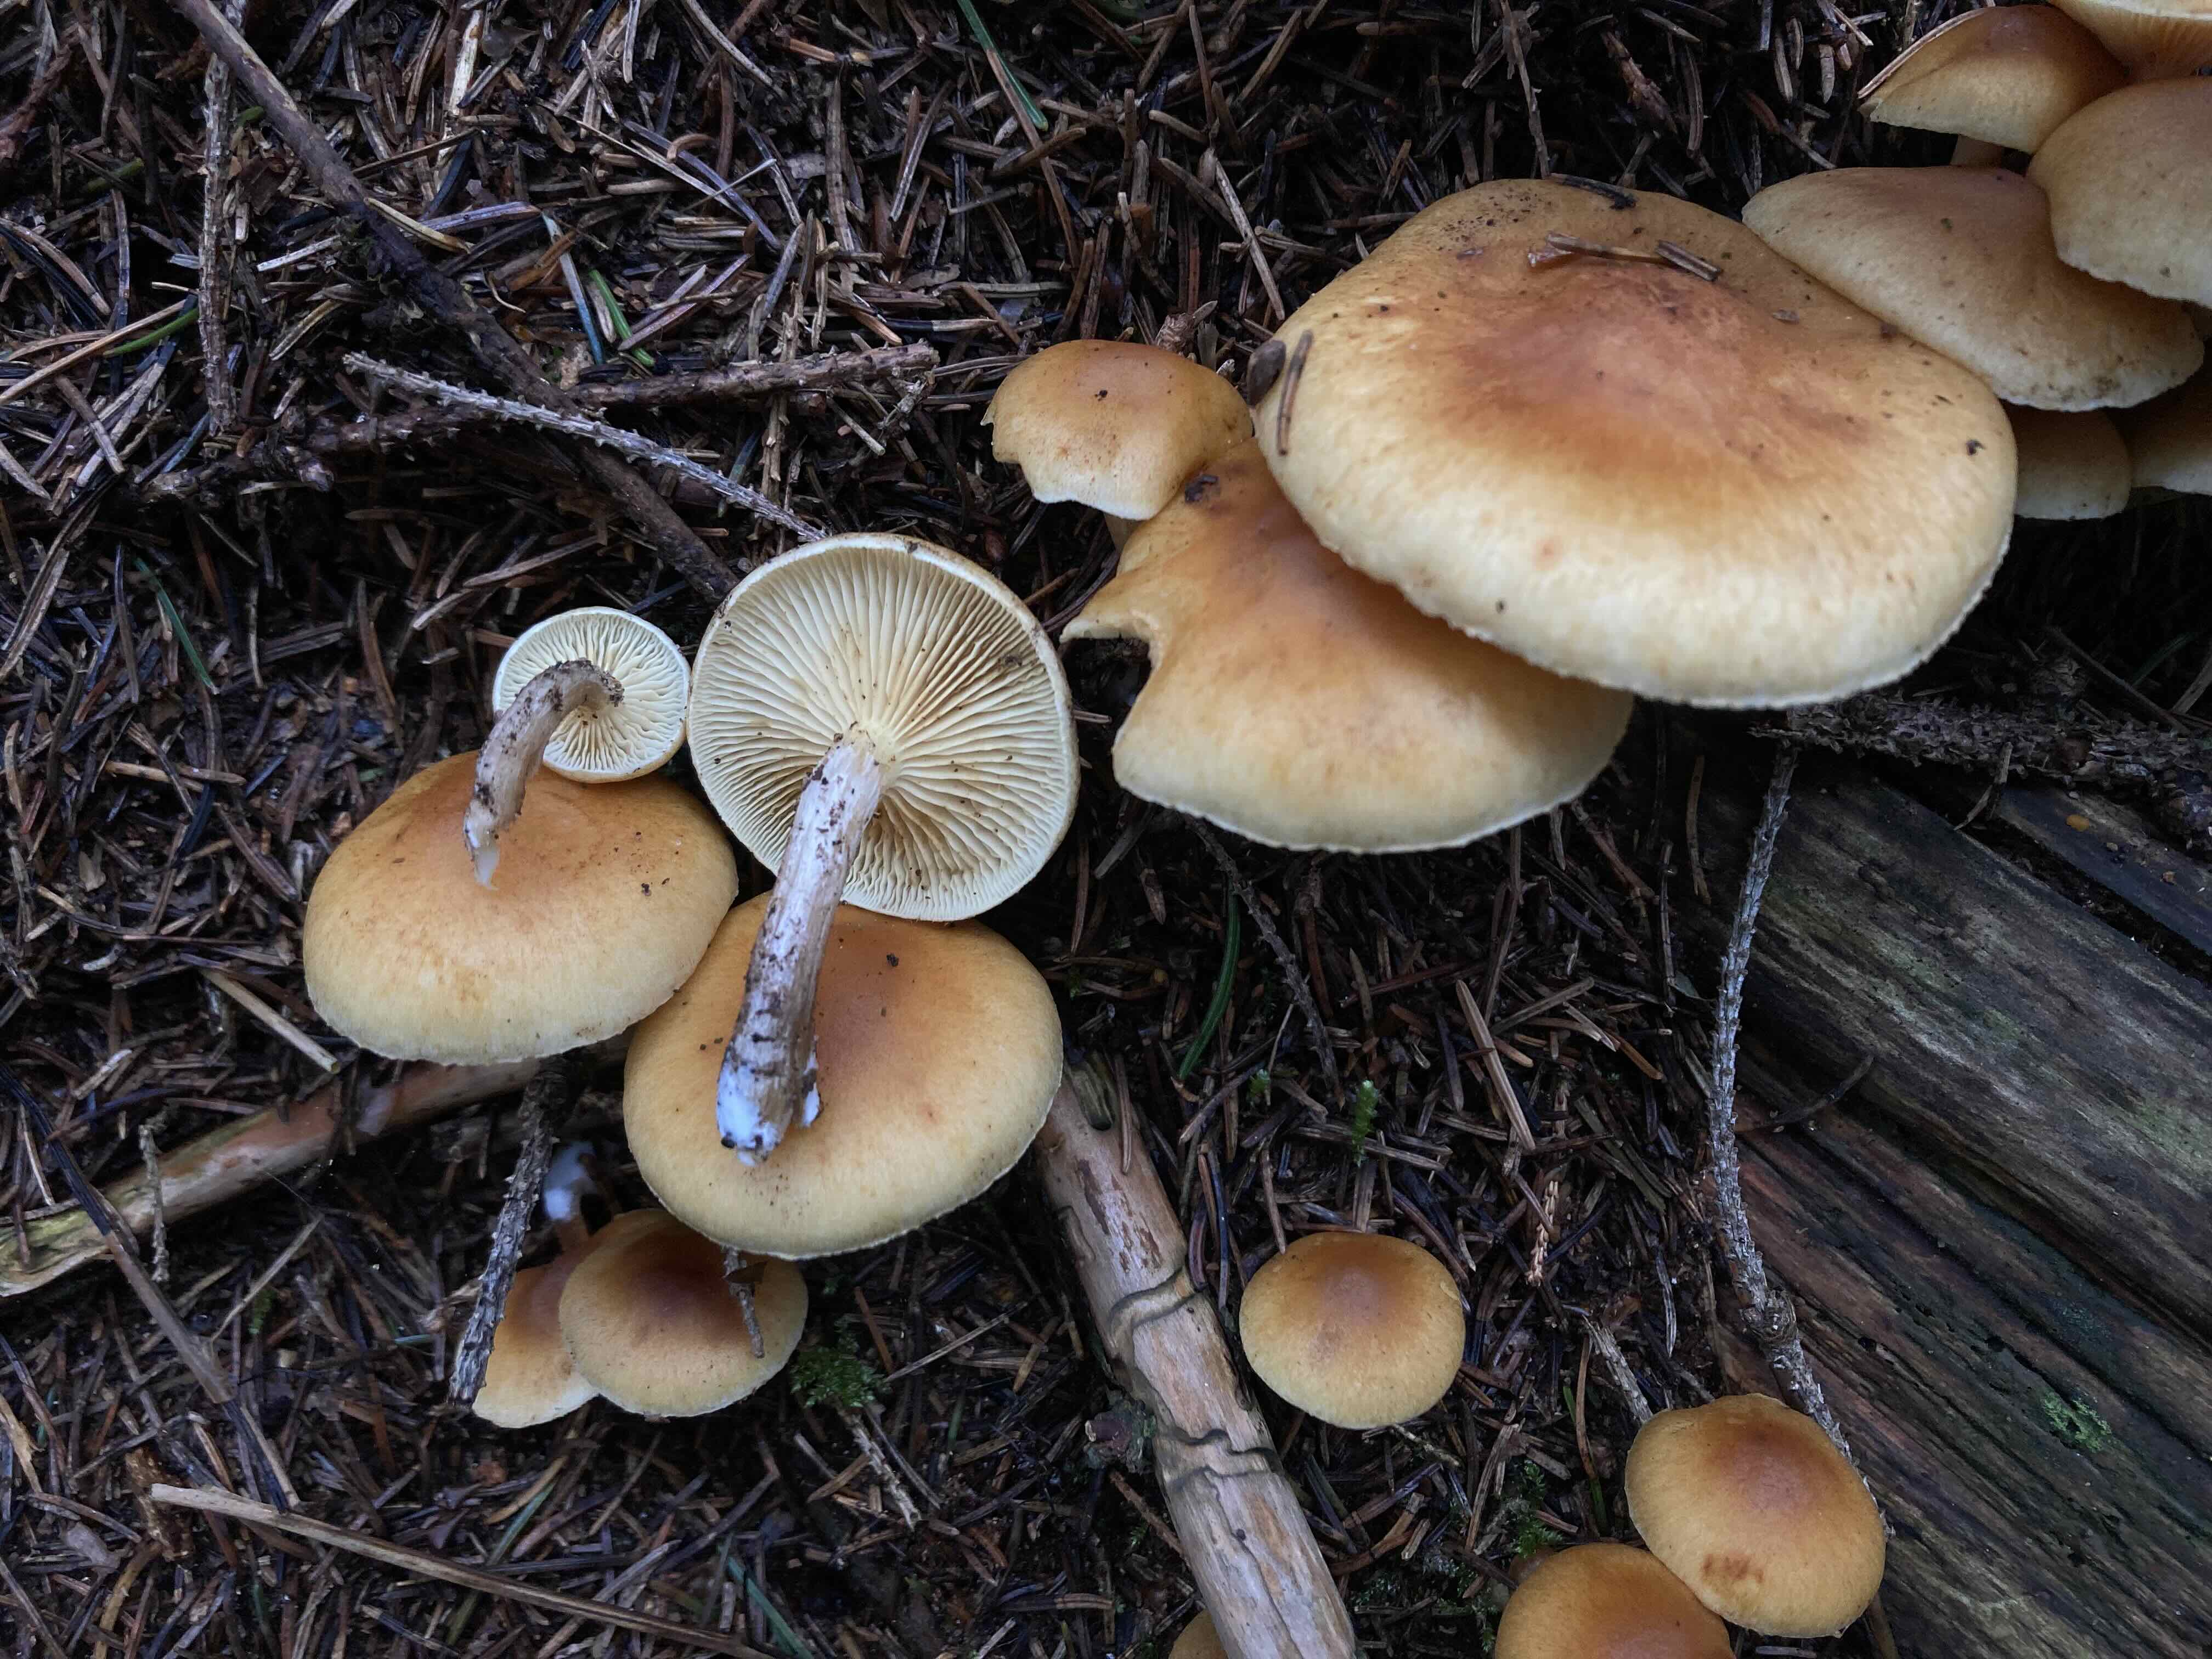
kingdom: Fungi
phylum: Basidiomycota
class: Agaricomycetes
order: Agaricales
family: Hymenogastraceae
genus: Gymnopilus
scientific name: Gymnopilus penetrans
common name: plettet flammehat
